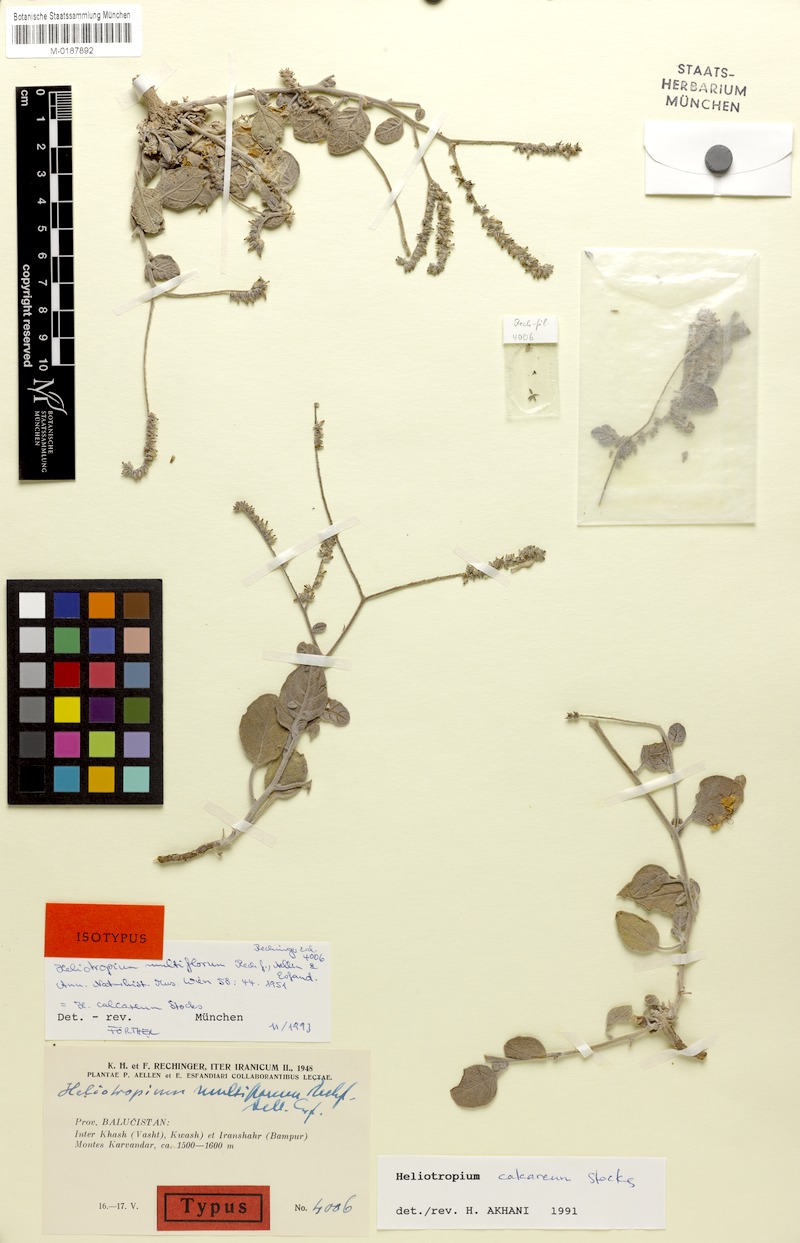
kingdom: Plantae
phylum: Tracheophyta
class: Magnoliopsida
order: Boraginales
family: Heliotropiaceae
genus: Heliotropium
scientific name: Heliotropium brevilimbe
